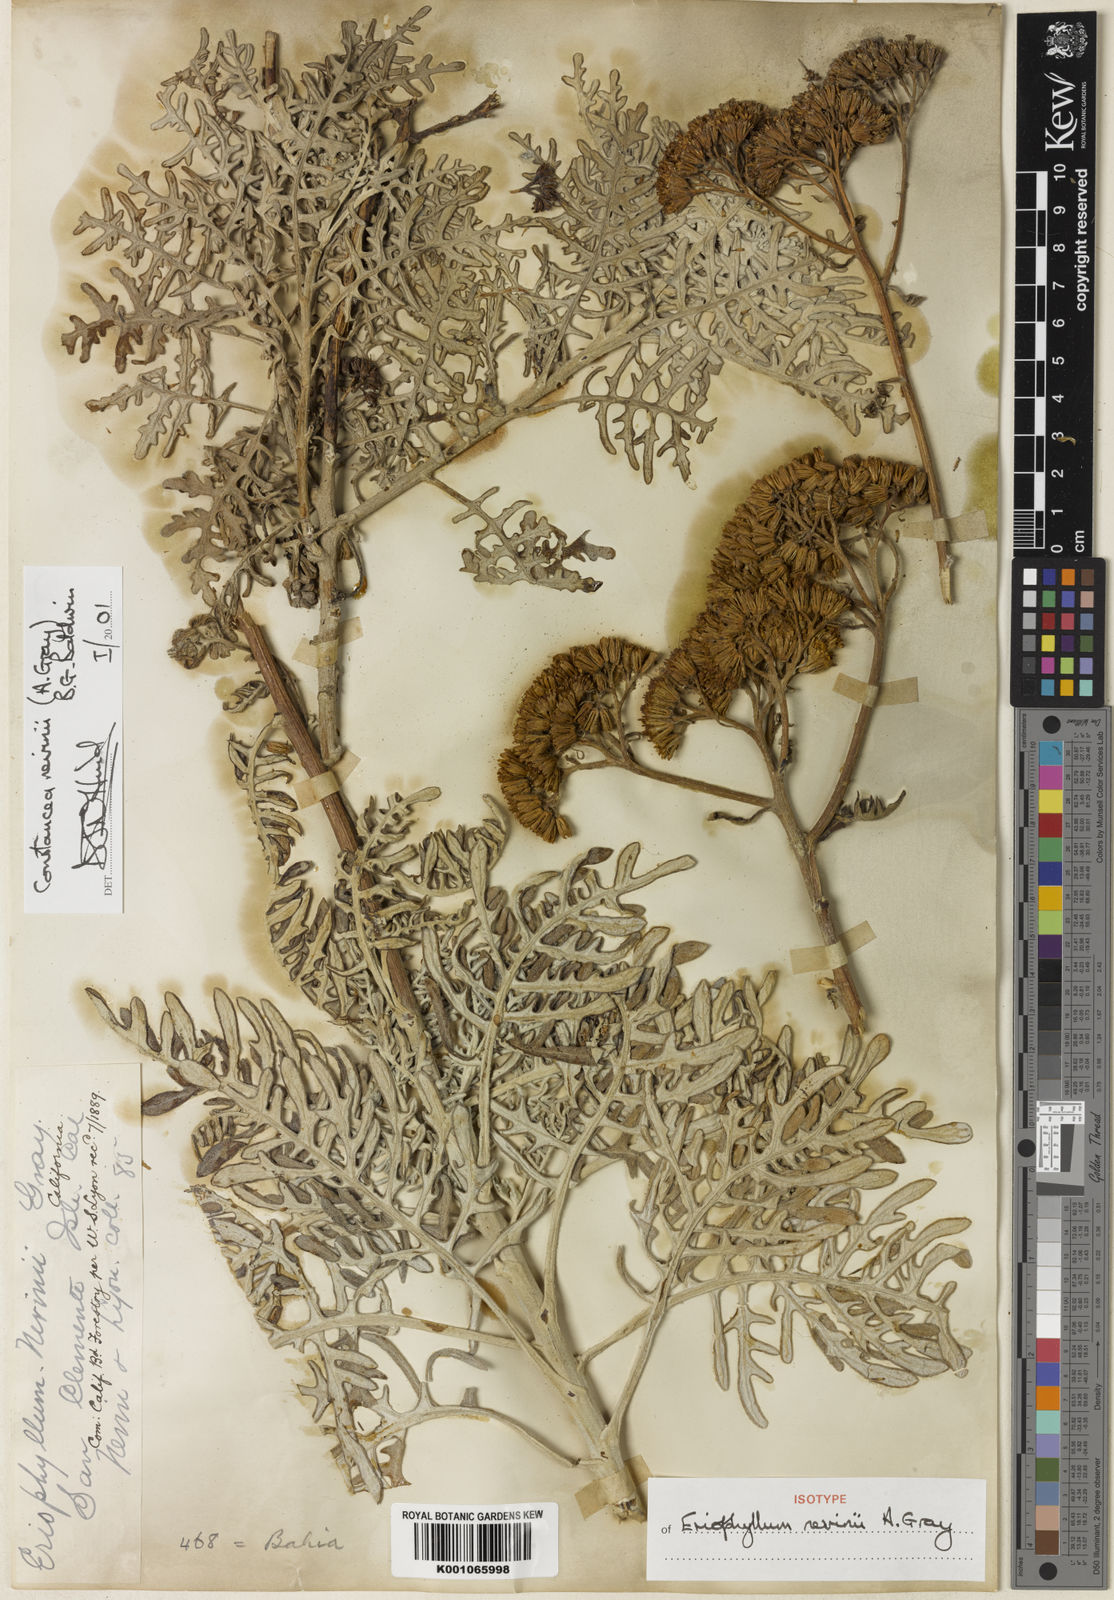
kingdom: Plantae
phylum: Tracheophyta
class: Magnoliopsida
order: Asterales
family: Asteraceae
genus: Constancea
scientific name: Constancea nevinii
